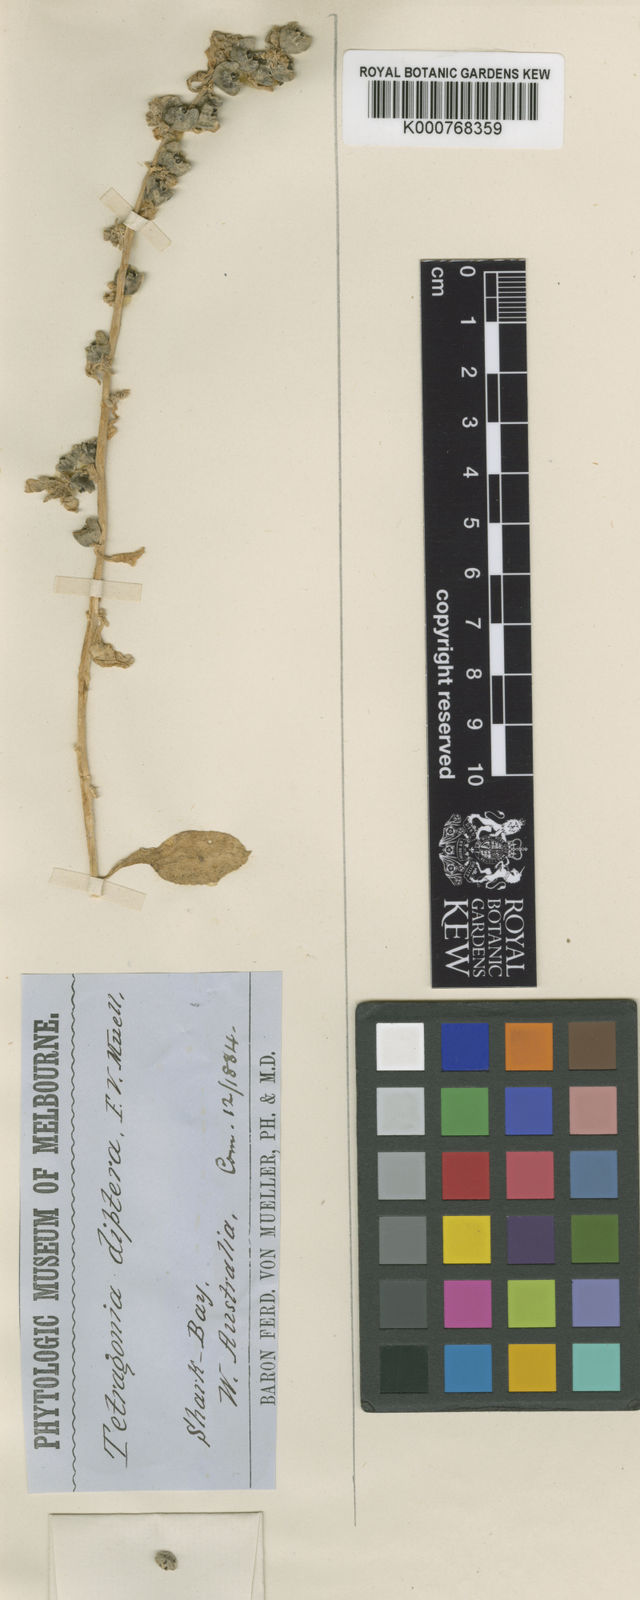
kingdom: Plantae
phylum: Tracheophyta
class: Magnoliopsida
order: Caryophyllales
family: Aizoaceae
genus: Tetragonia
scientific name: Tetragonia diptera
